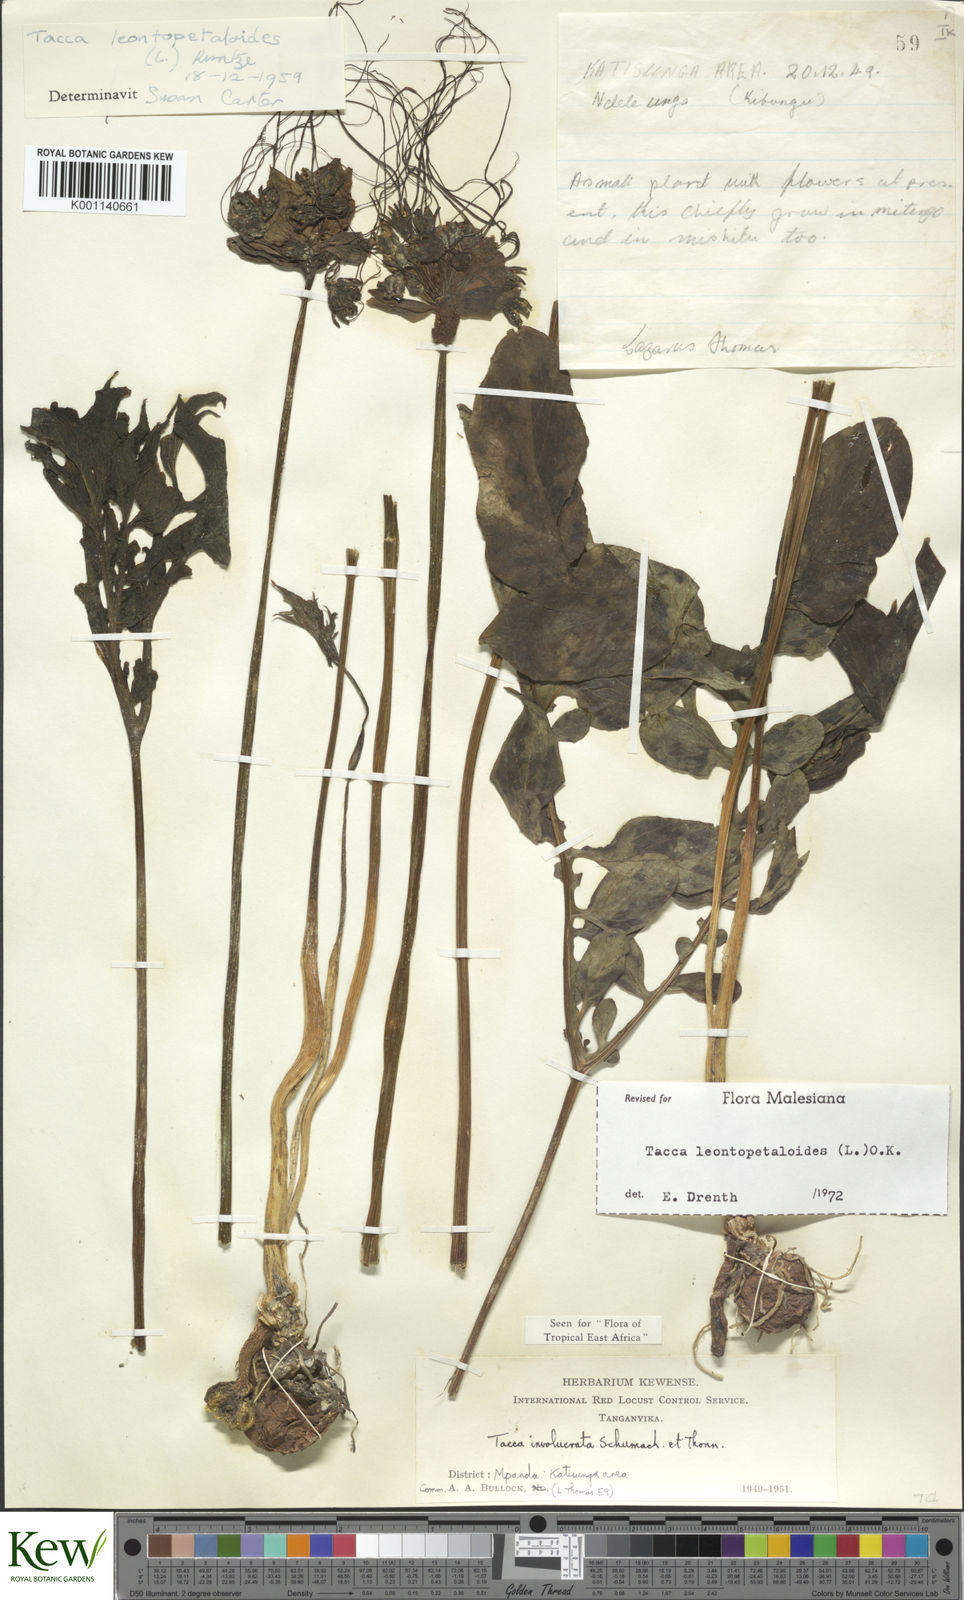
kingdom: Plantae
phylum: Tracheophyta
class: Liliopsida
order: Dioscoreales
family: Dioscoreaceae
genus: Tacca
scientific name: Tacca leontopetaloides
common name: Arrowroot
